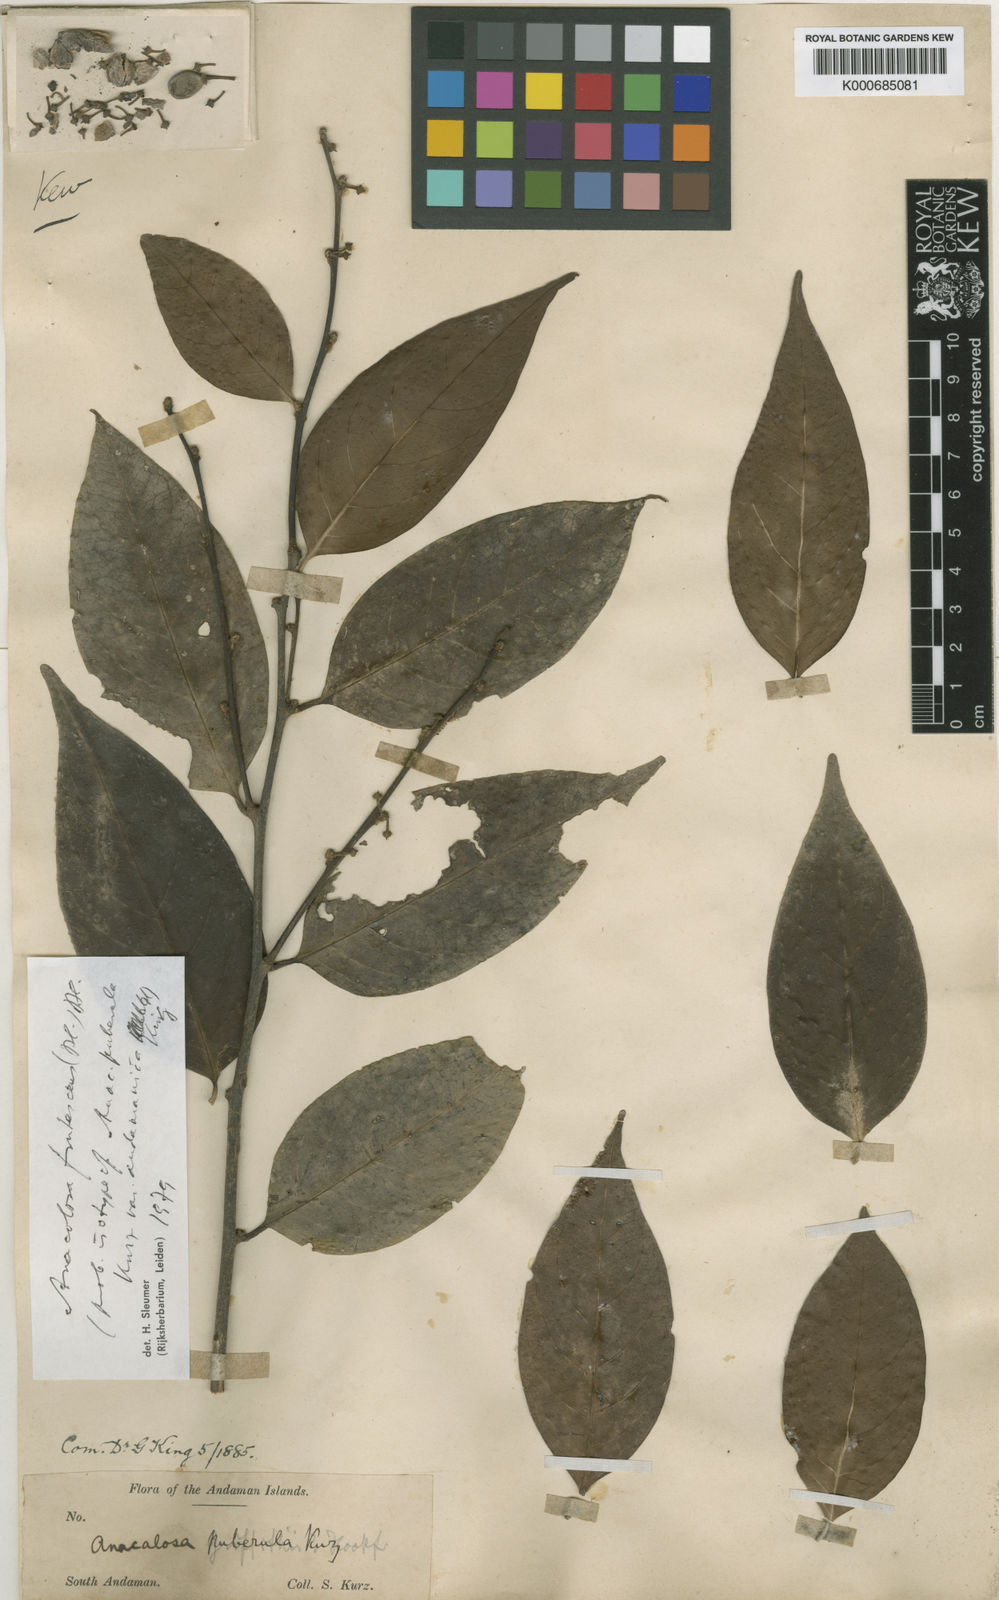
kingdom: Plantae
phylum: Tracheophyta
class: Magnoliopsida
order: Santalales
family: Aptandraceae
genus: Anacolosa
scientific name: Anacolosa frutescens
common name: Galo nut
